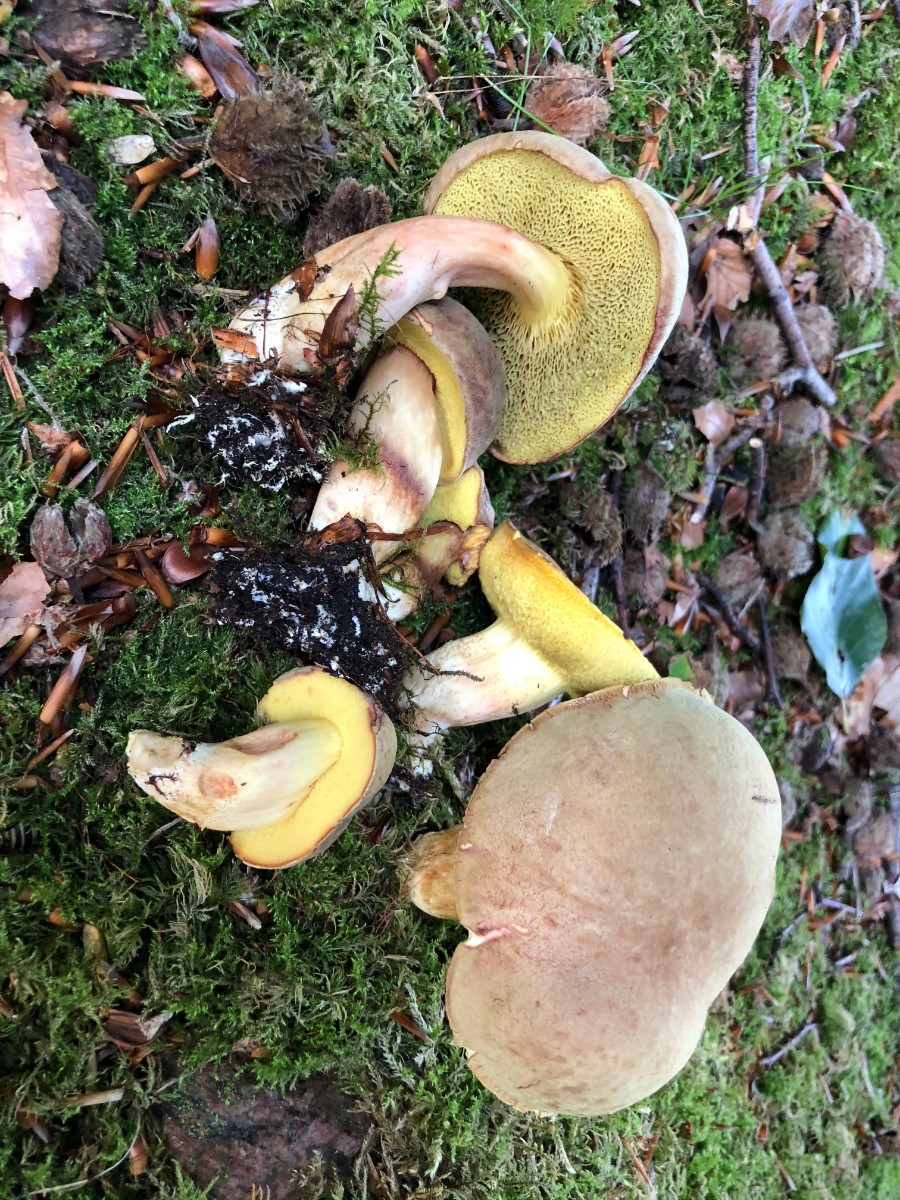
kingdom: Fungi
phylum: Basidiomycota
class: Agaricomycetes
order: Boletales
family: Boletaceae
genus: Xerocomus
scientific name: Xerocomus subtomentosus
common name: filtet rørhat
